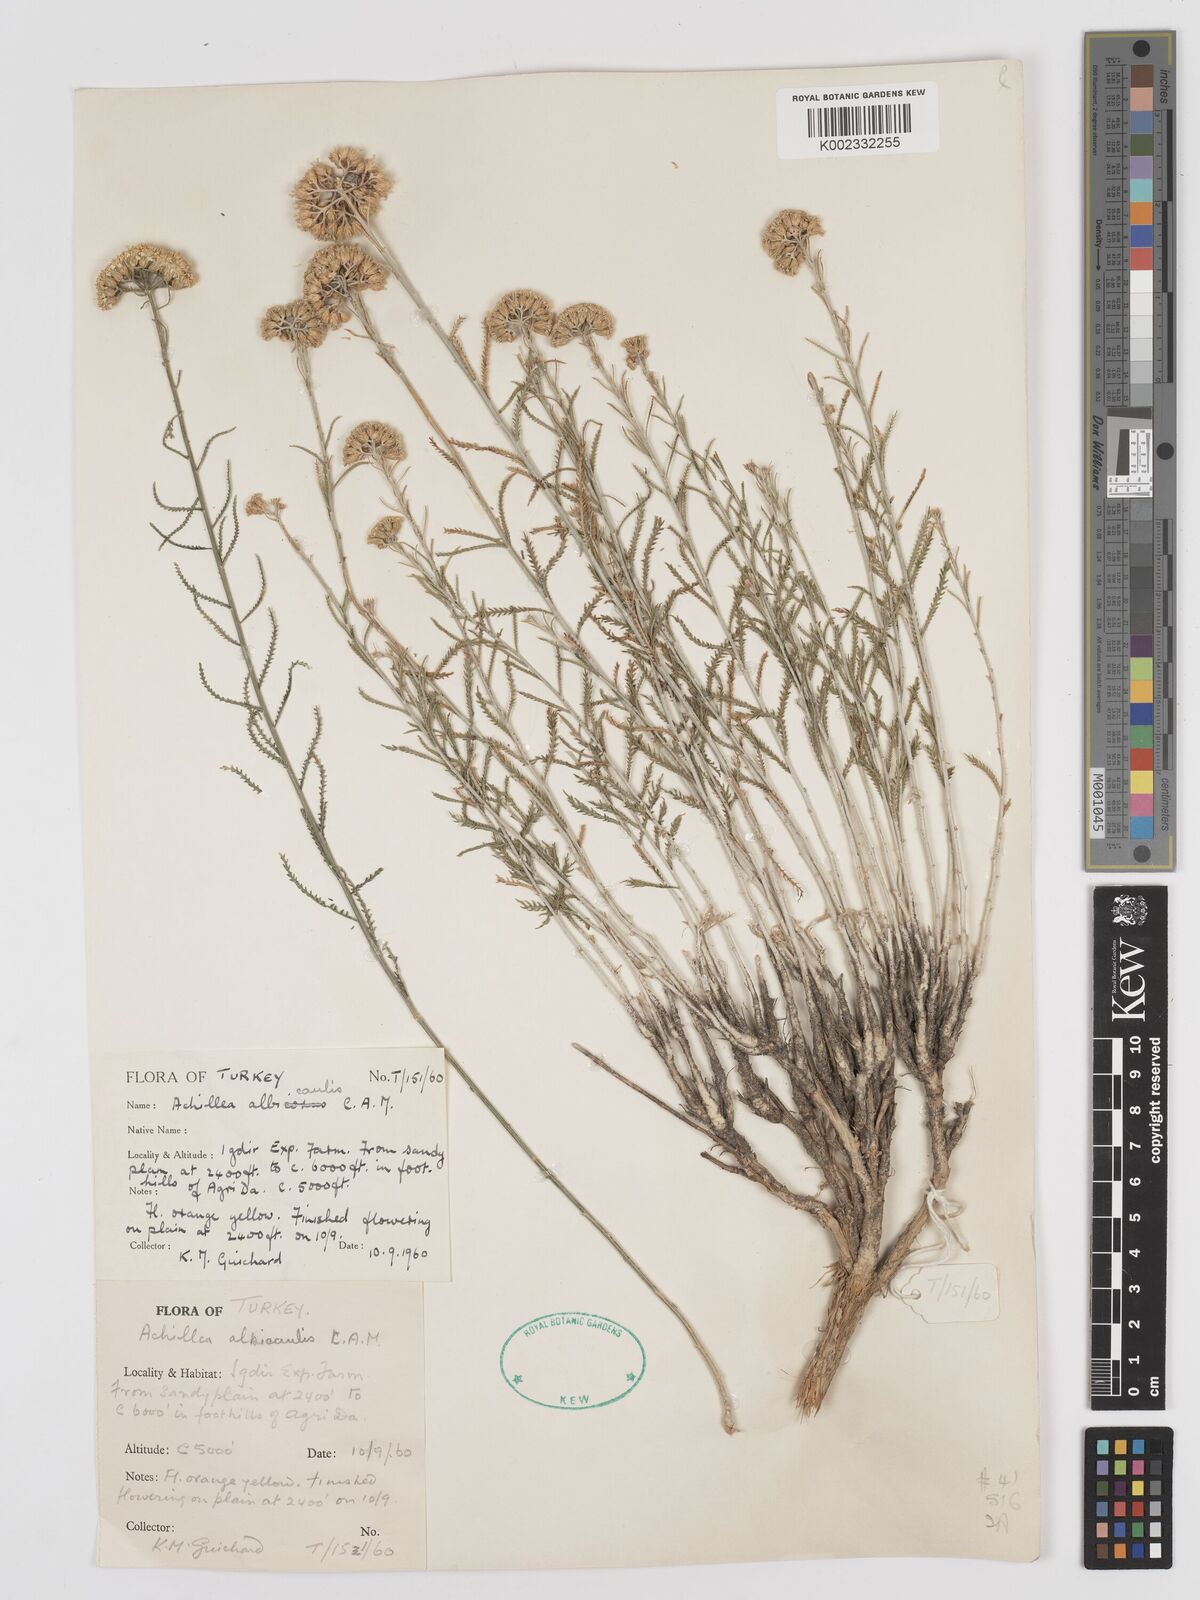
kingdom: Plantae
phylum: Tracheophyta
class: Magnoliopsida
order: Asterales
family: Asteraceae
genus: Achillea
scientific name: Achillea tenuifolia
